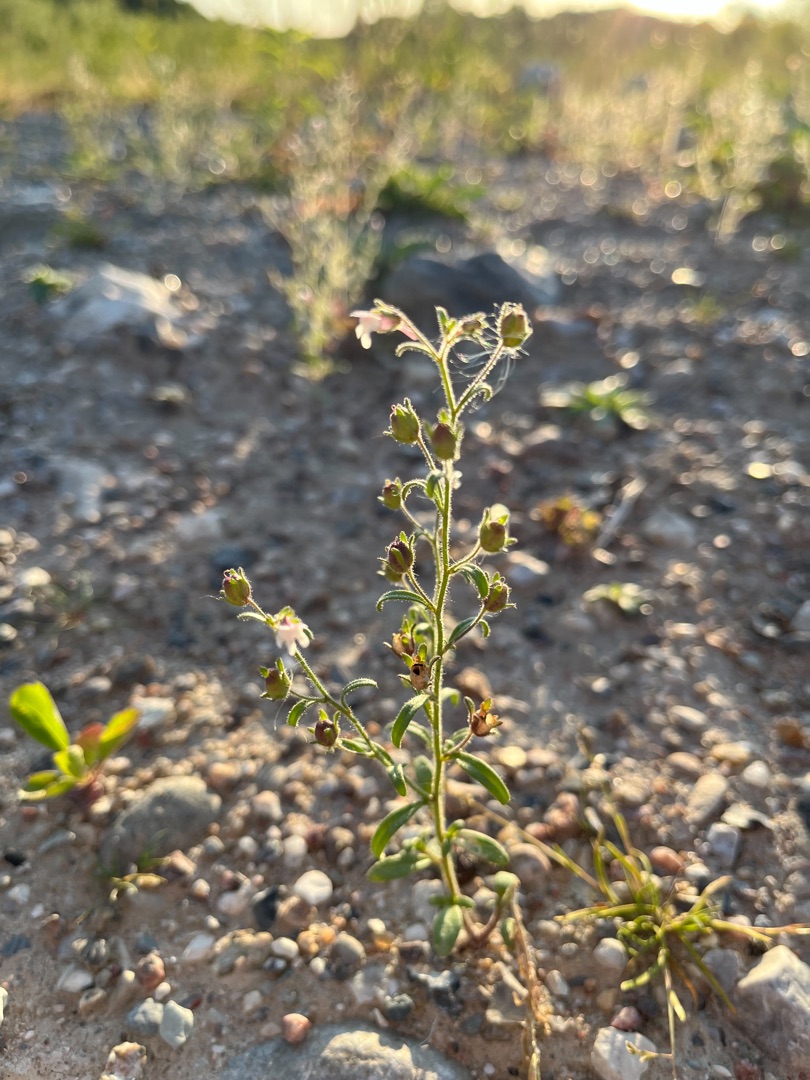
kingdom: Plantae
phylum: Tracheophyta
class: Magnoliopsida
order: Lamiales
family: Plantaginaceae
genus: Chaenorhinum
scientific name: Chaenorhinum minus
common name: Liden torskemund
